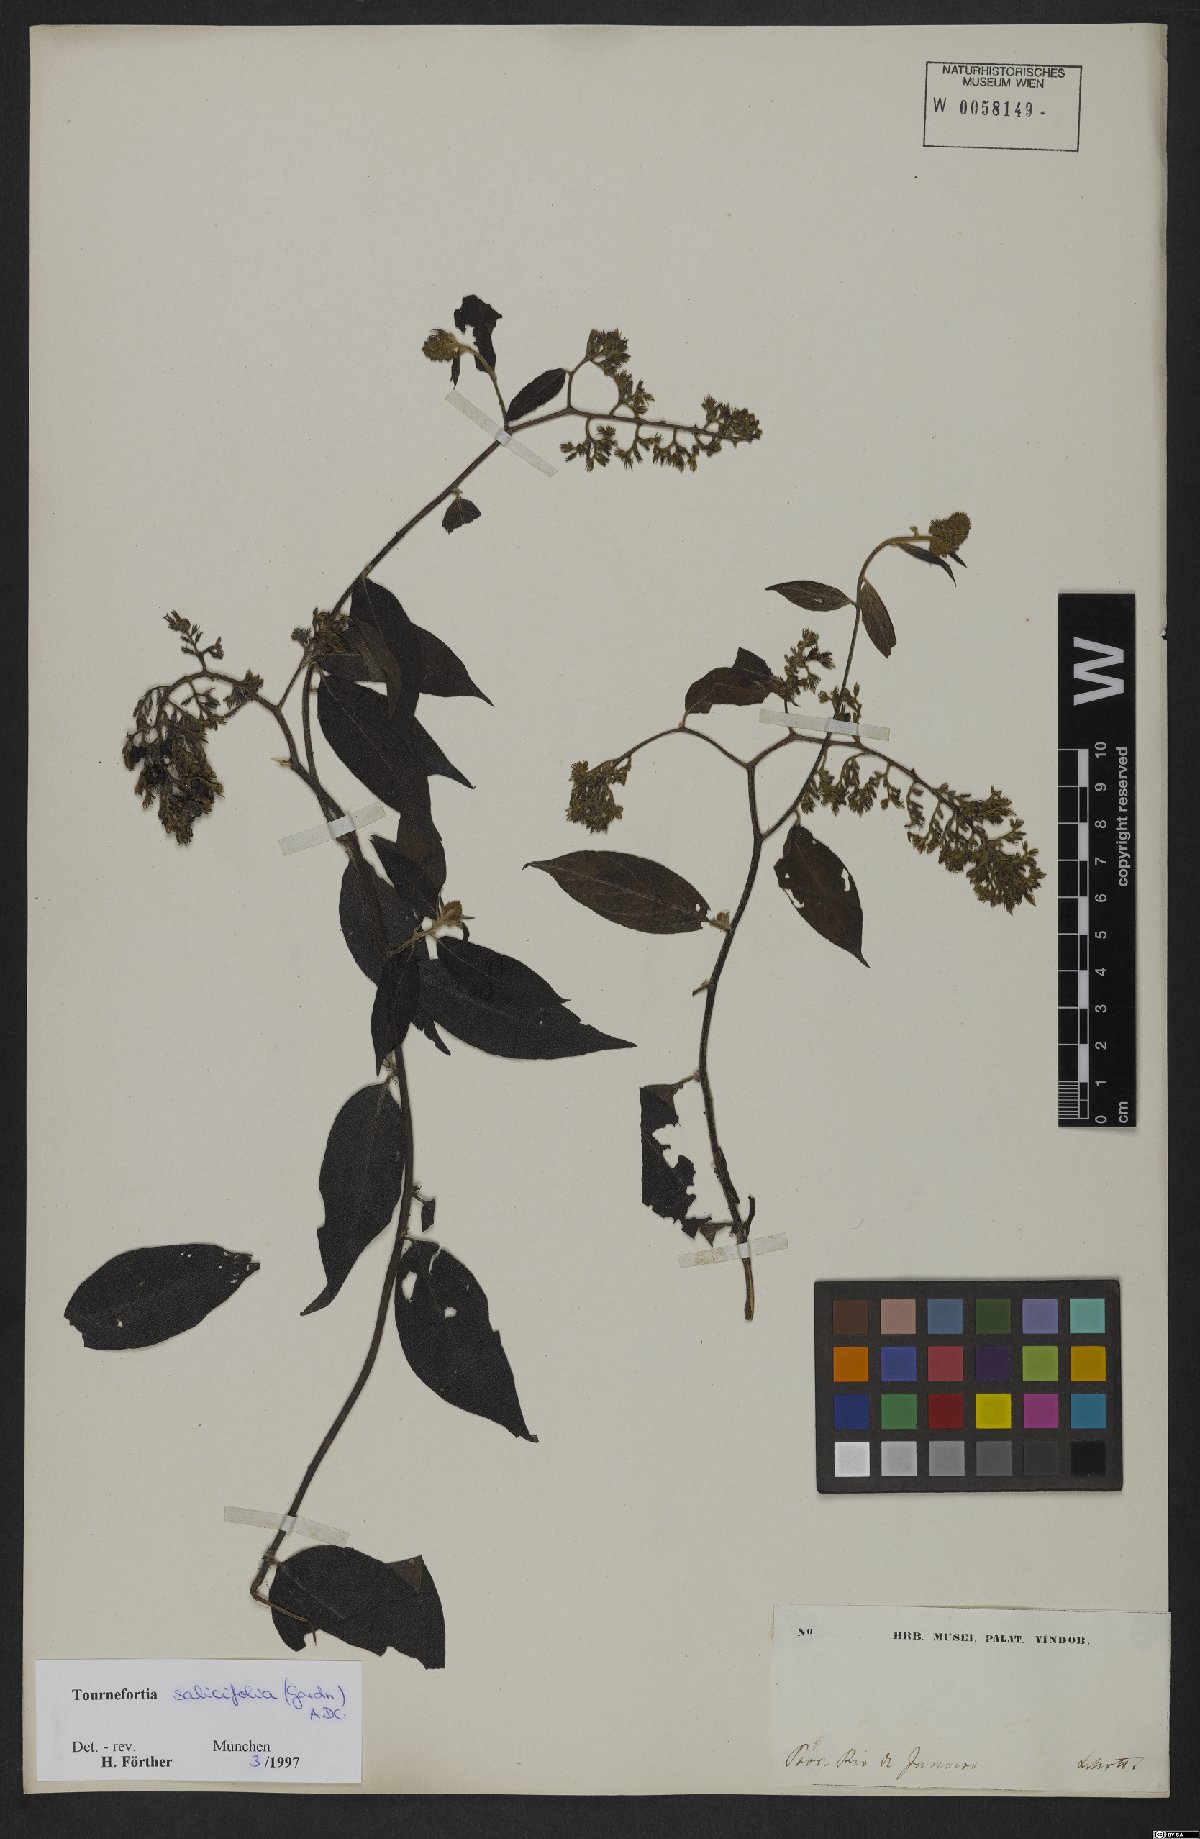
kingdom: Plantae
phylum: Tracheophyta
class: Magnoliopsida
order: Boraginales
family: Heliotropiaceae
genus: Myriopus
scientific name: Myriopus salicifolius
